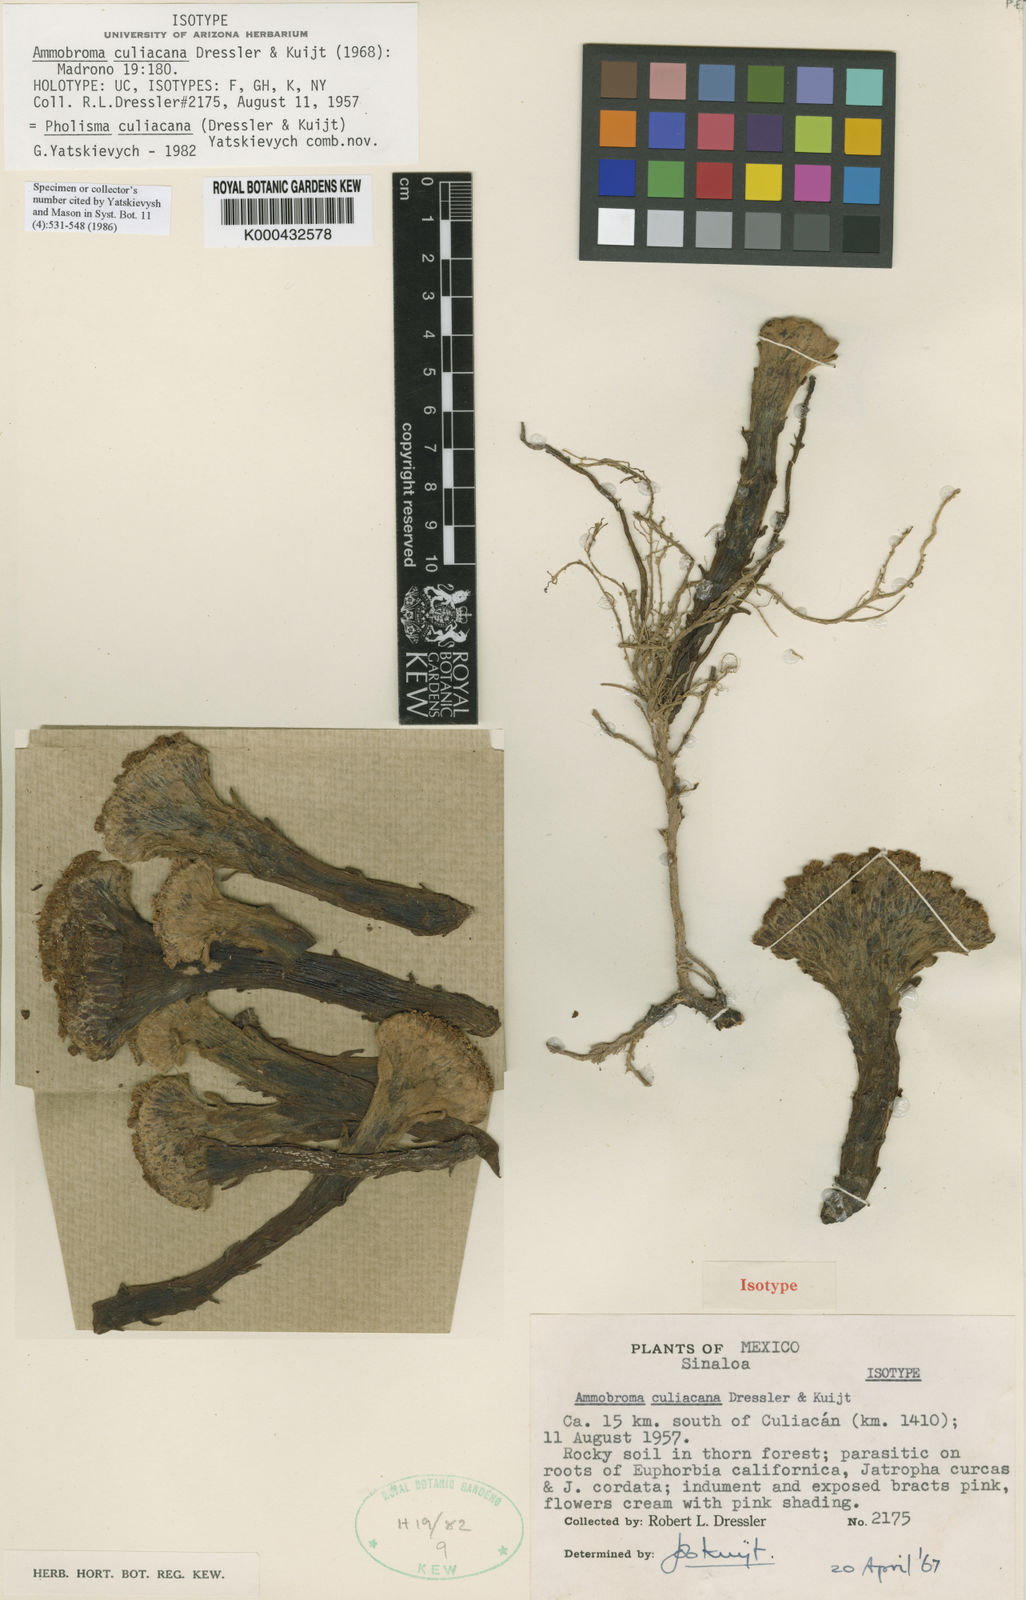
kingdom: Plantae
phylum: Tracheophyta
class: Magnoliopsida
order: Boraginales
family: Lennoaceae
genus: Pholisma
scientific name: Pholisma culiacana
